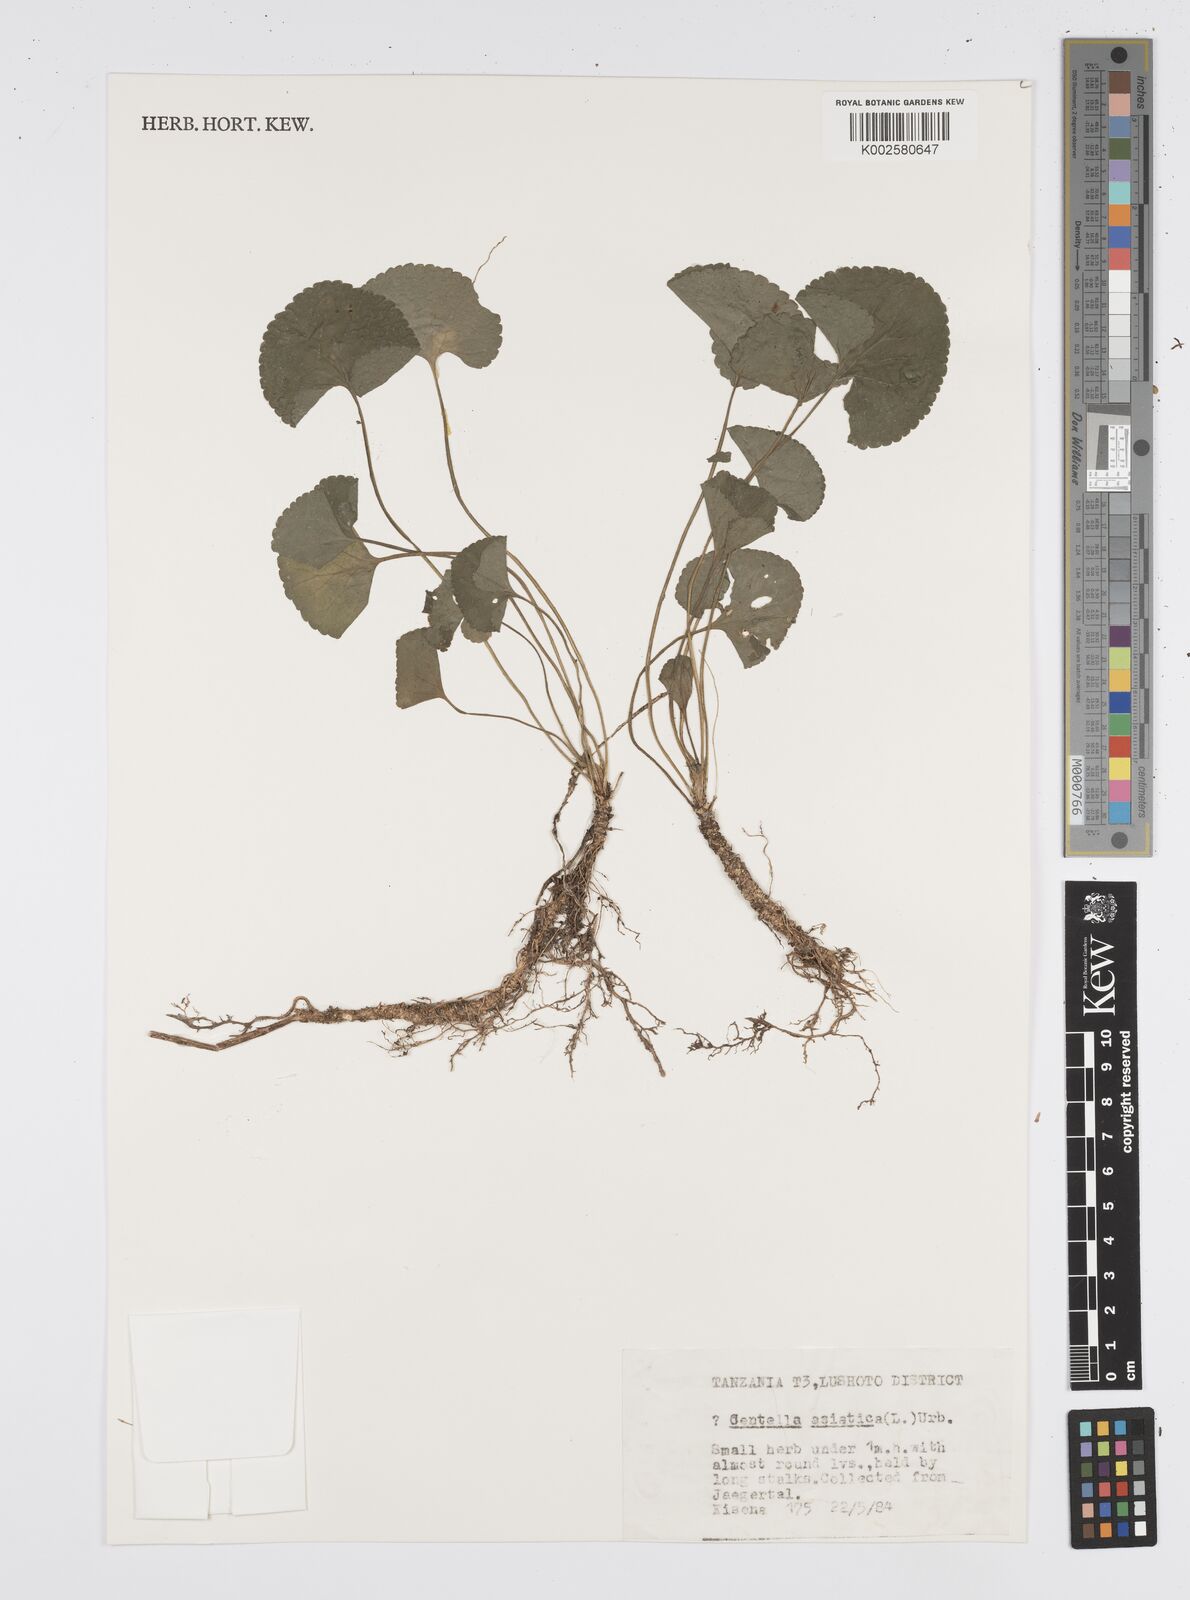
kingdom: Plantae
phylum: Tracheophyta
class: Magnoliopsida
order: Apiales
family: Apiaceae
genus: Centella
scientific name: Centella asiatica
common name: Spadeleaf
